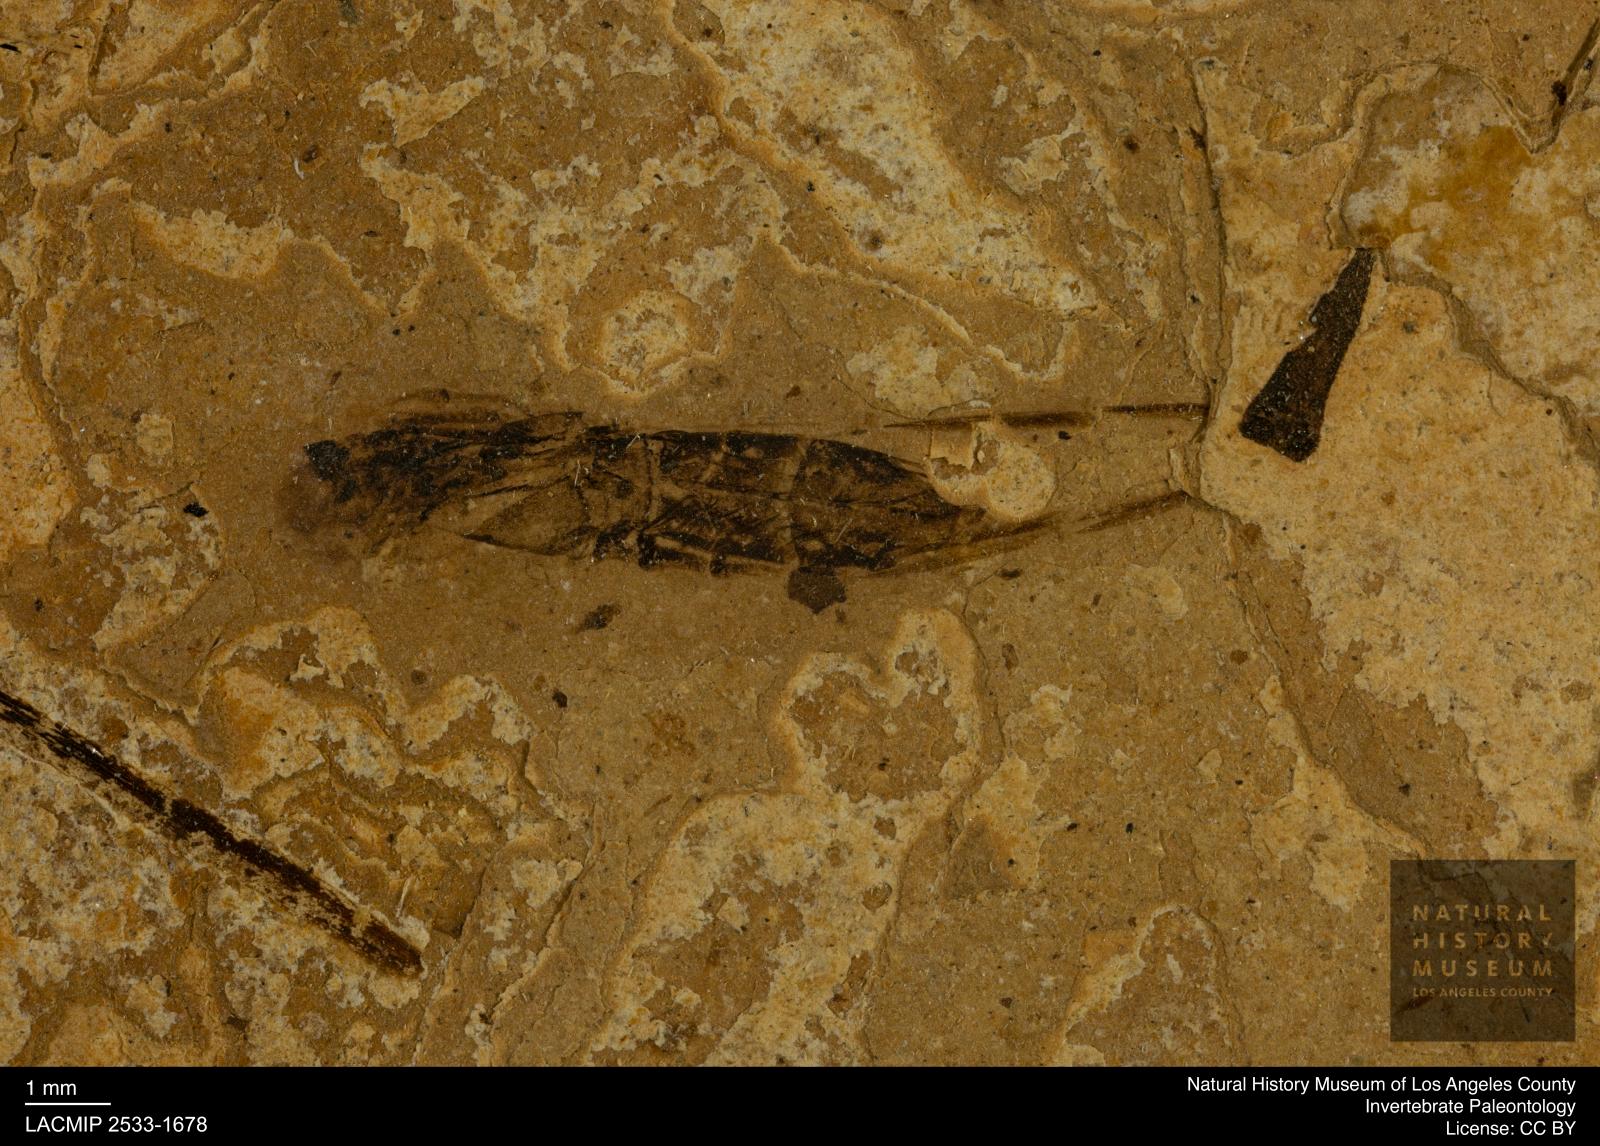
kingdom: Animalia
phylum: Arthropoda
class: Insecta
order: Hemiptera
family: Notonectidae
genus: Notonecta
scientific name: Notonecta
